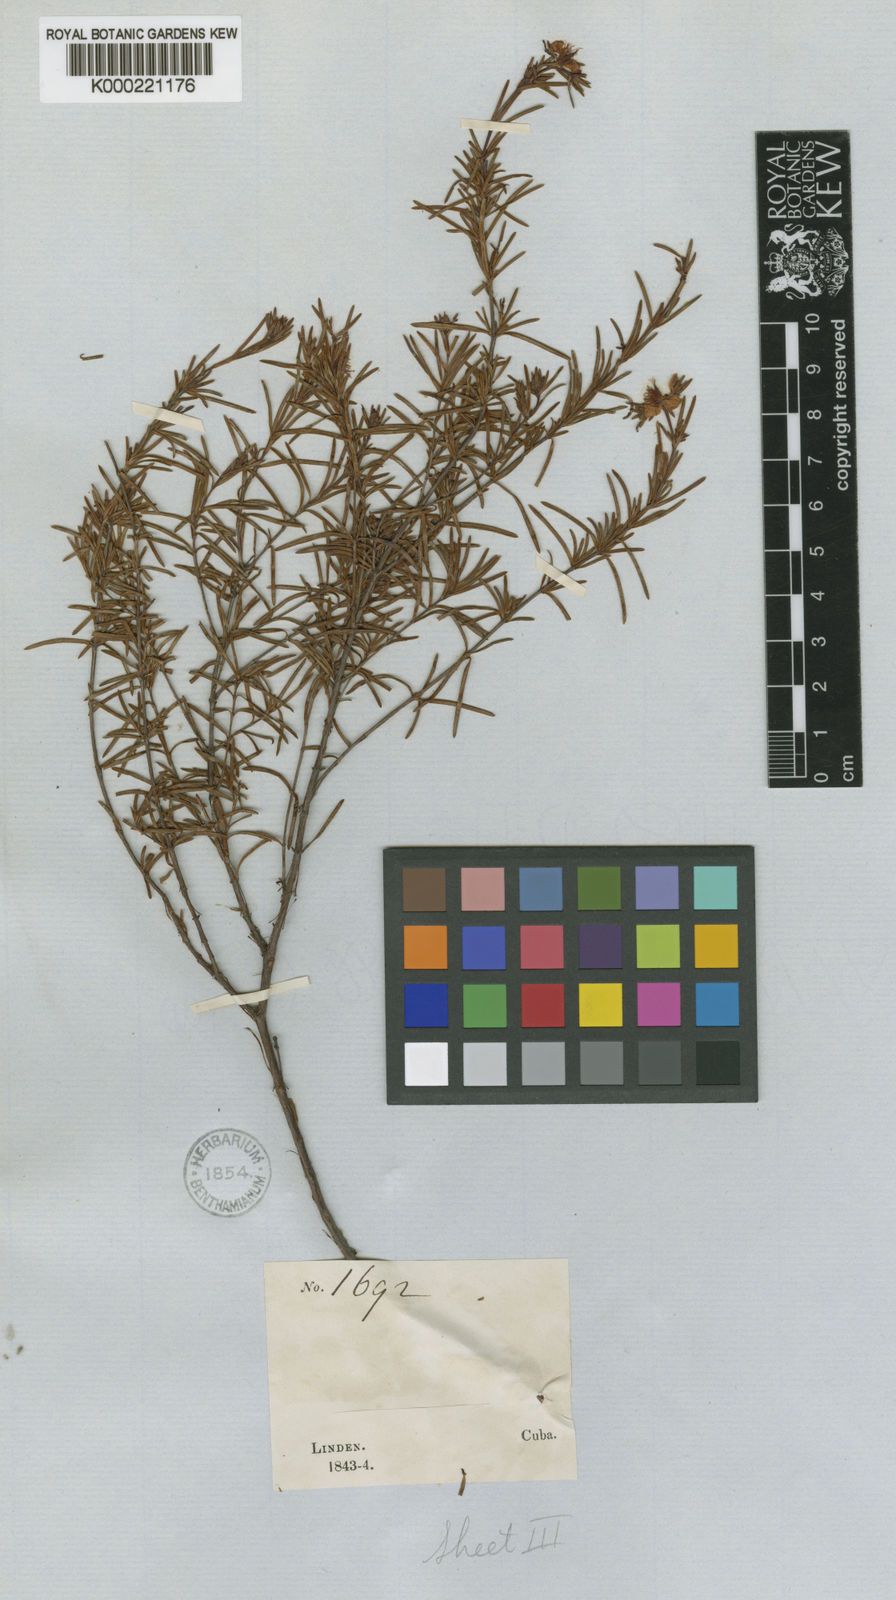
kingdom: Plantae
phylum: Tracheophyta
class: Magnoliopsida
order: Malpighiales
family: Hypericaceae
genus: Hypericum
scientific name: Hypericum nitidum
